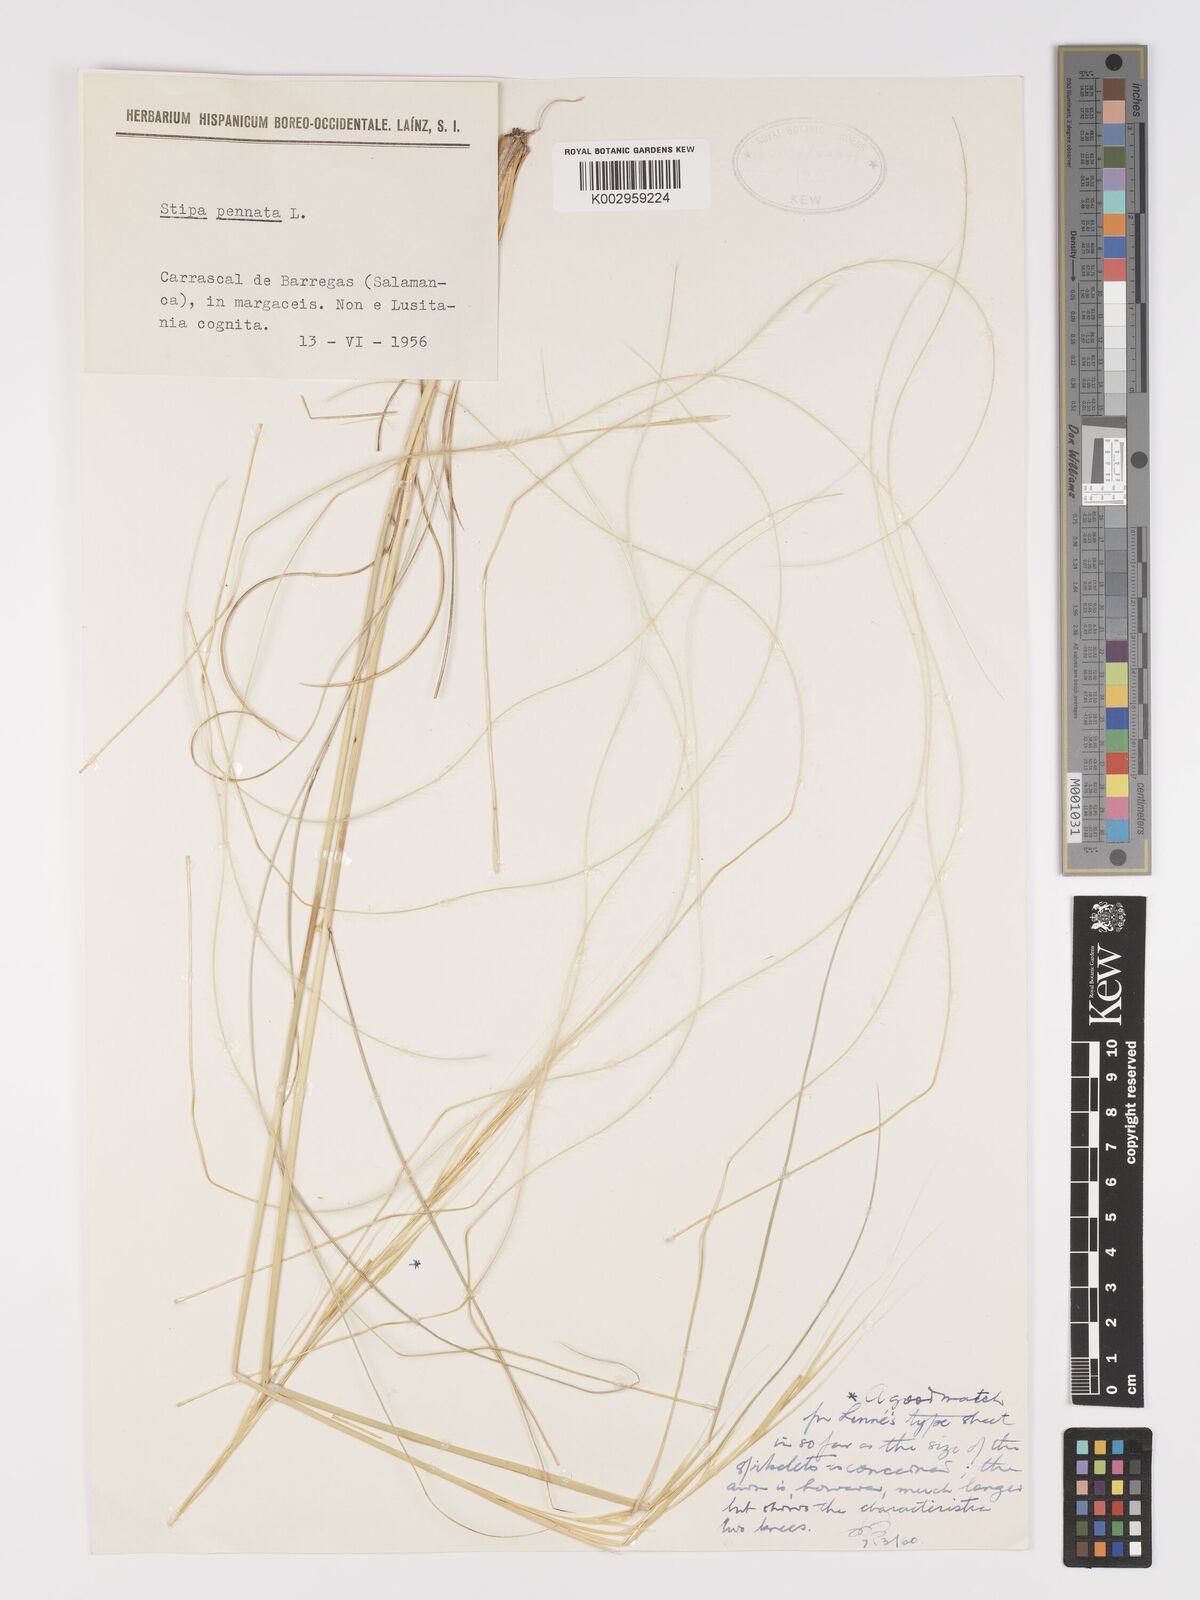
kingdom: Plantae
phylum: Tracheophyta
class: Liliopsida
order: Poales
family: Poaceae
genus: Stipa
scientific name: Stipa pennata
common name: European feather grass
